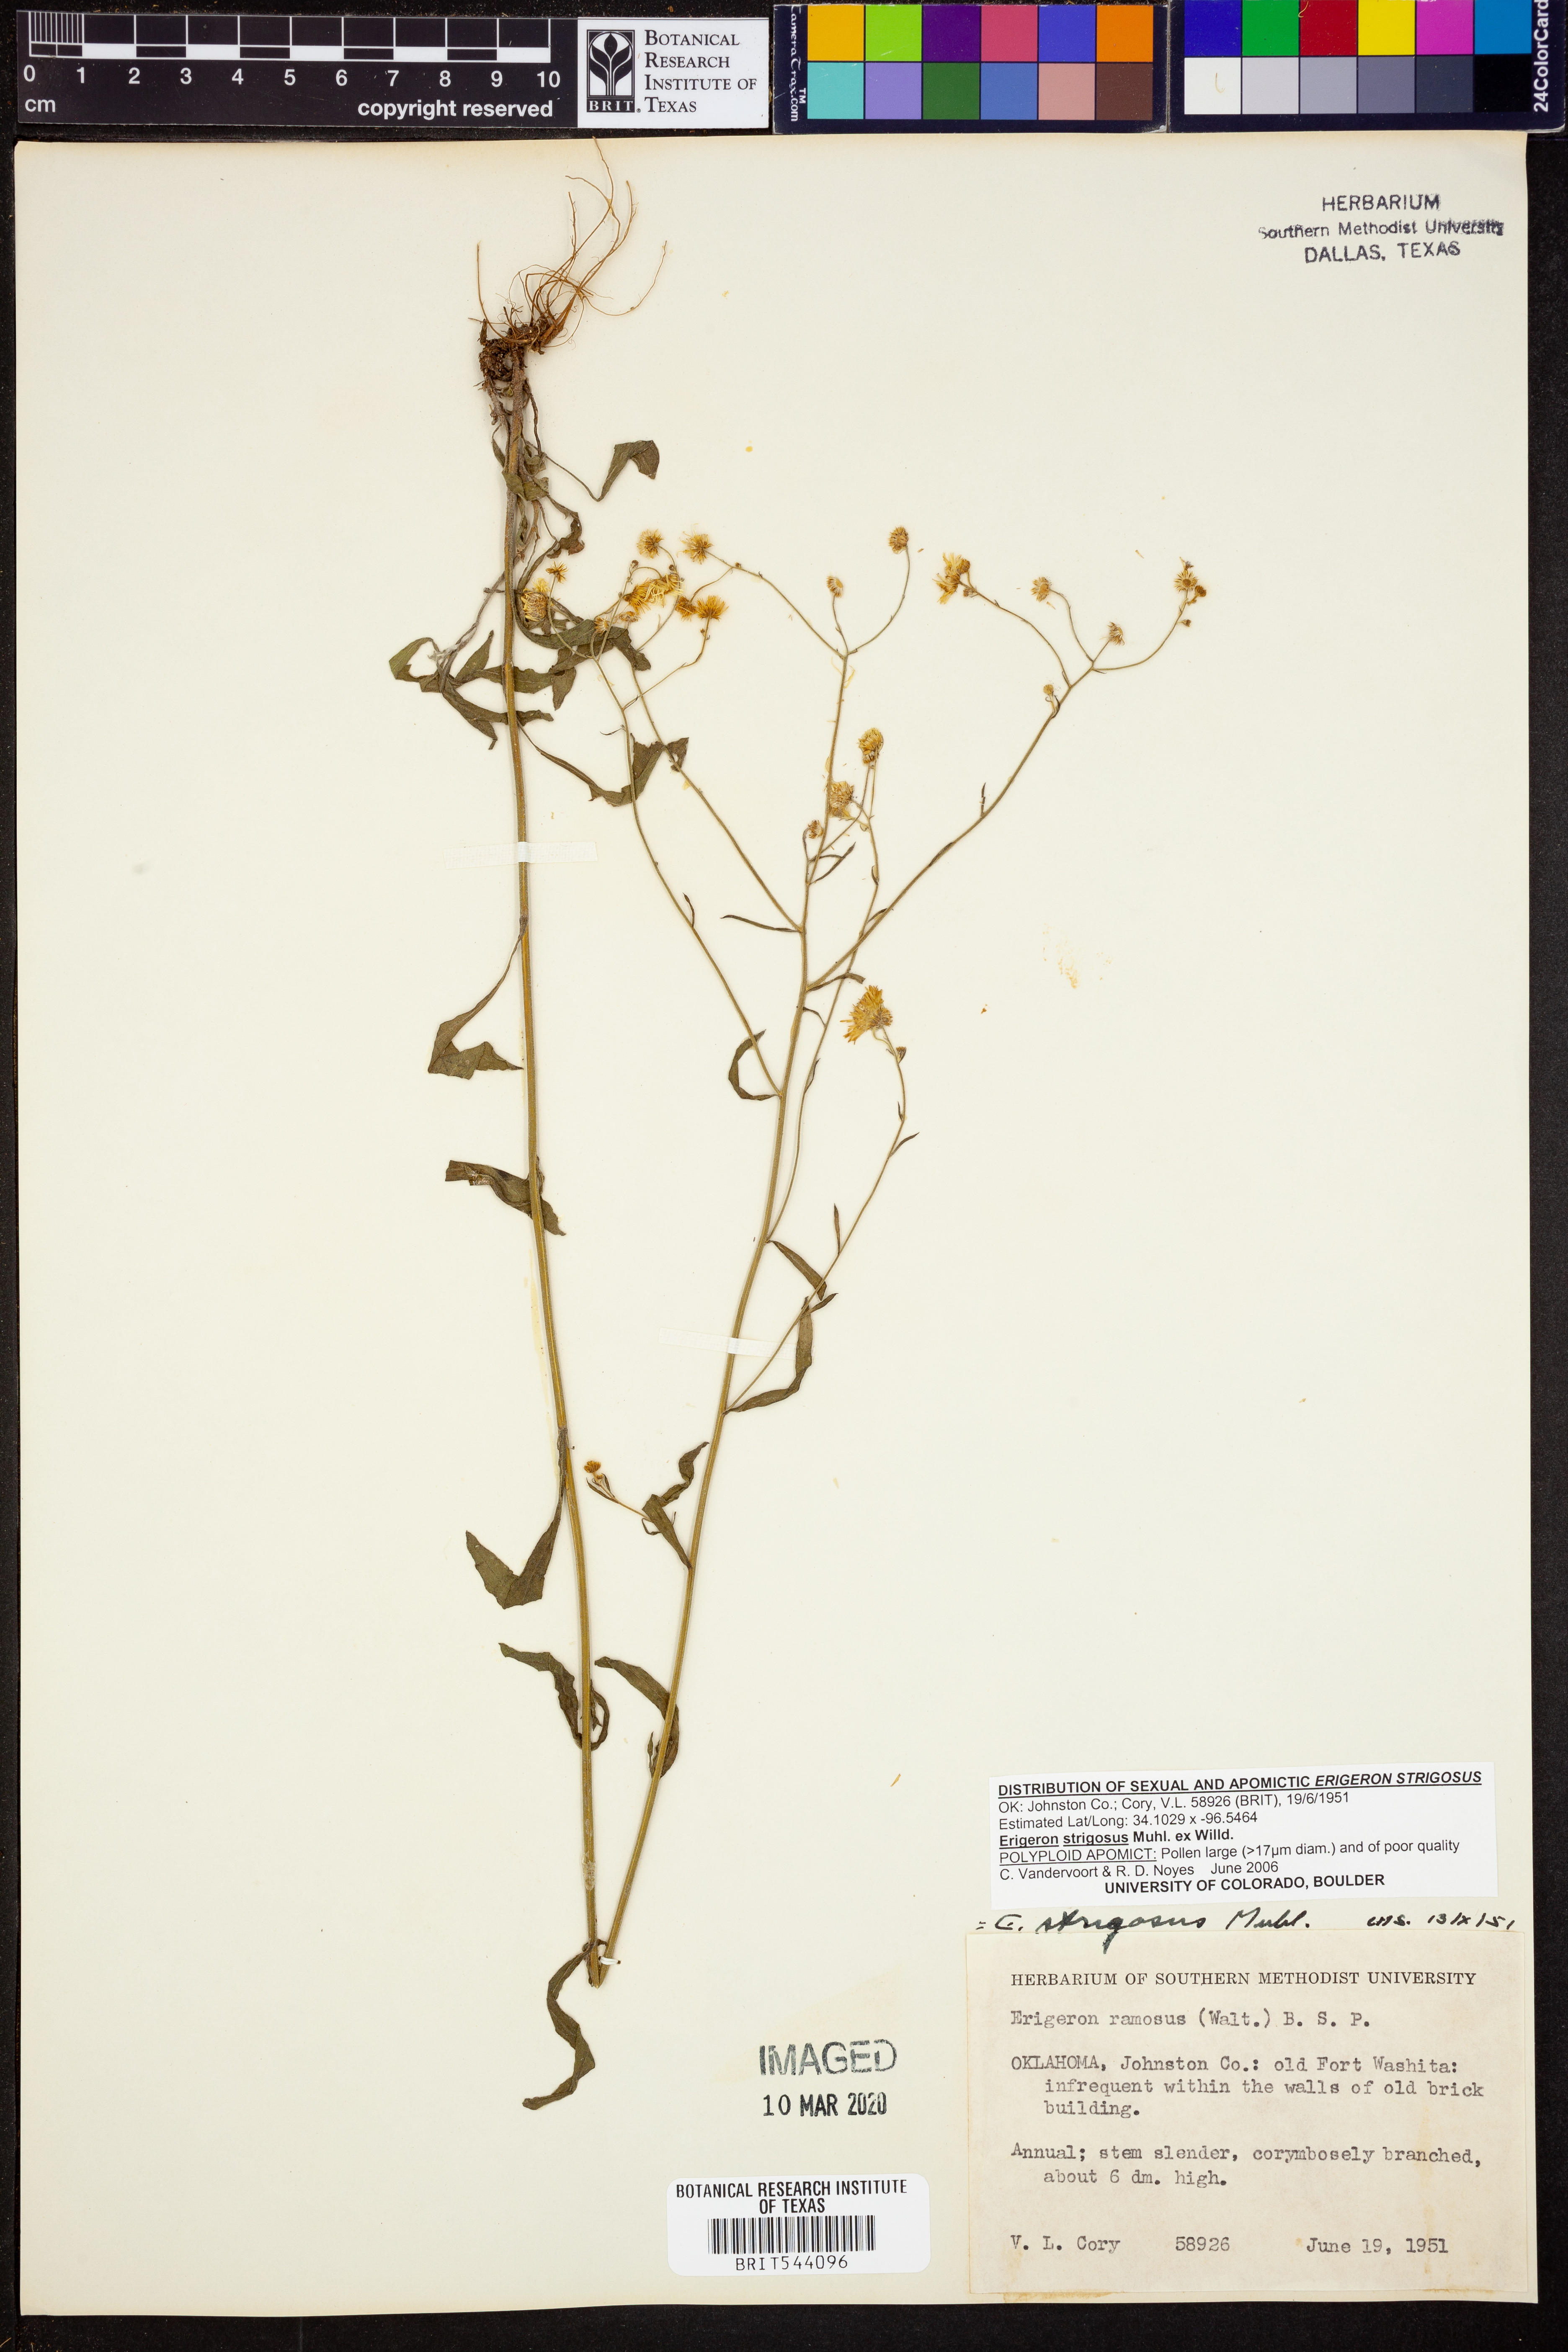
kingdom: Plantae
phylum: Tracheophyta
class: Magnoliopsida
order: Asterales
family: Asteraceae
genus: Erigeron
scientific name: Erigeron strigosus
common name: Common eastern fleabane
